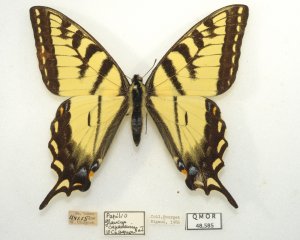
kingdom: Animalia
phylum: Arthropoda
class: Insecta
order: Lepidoptera
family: Papilionidae
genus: Pterourus
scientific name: Pterourus canadensis
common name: Canadian Tiger Swallowtail
